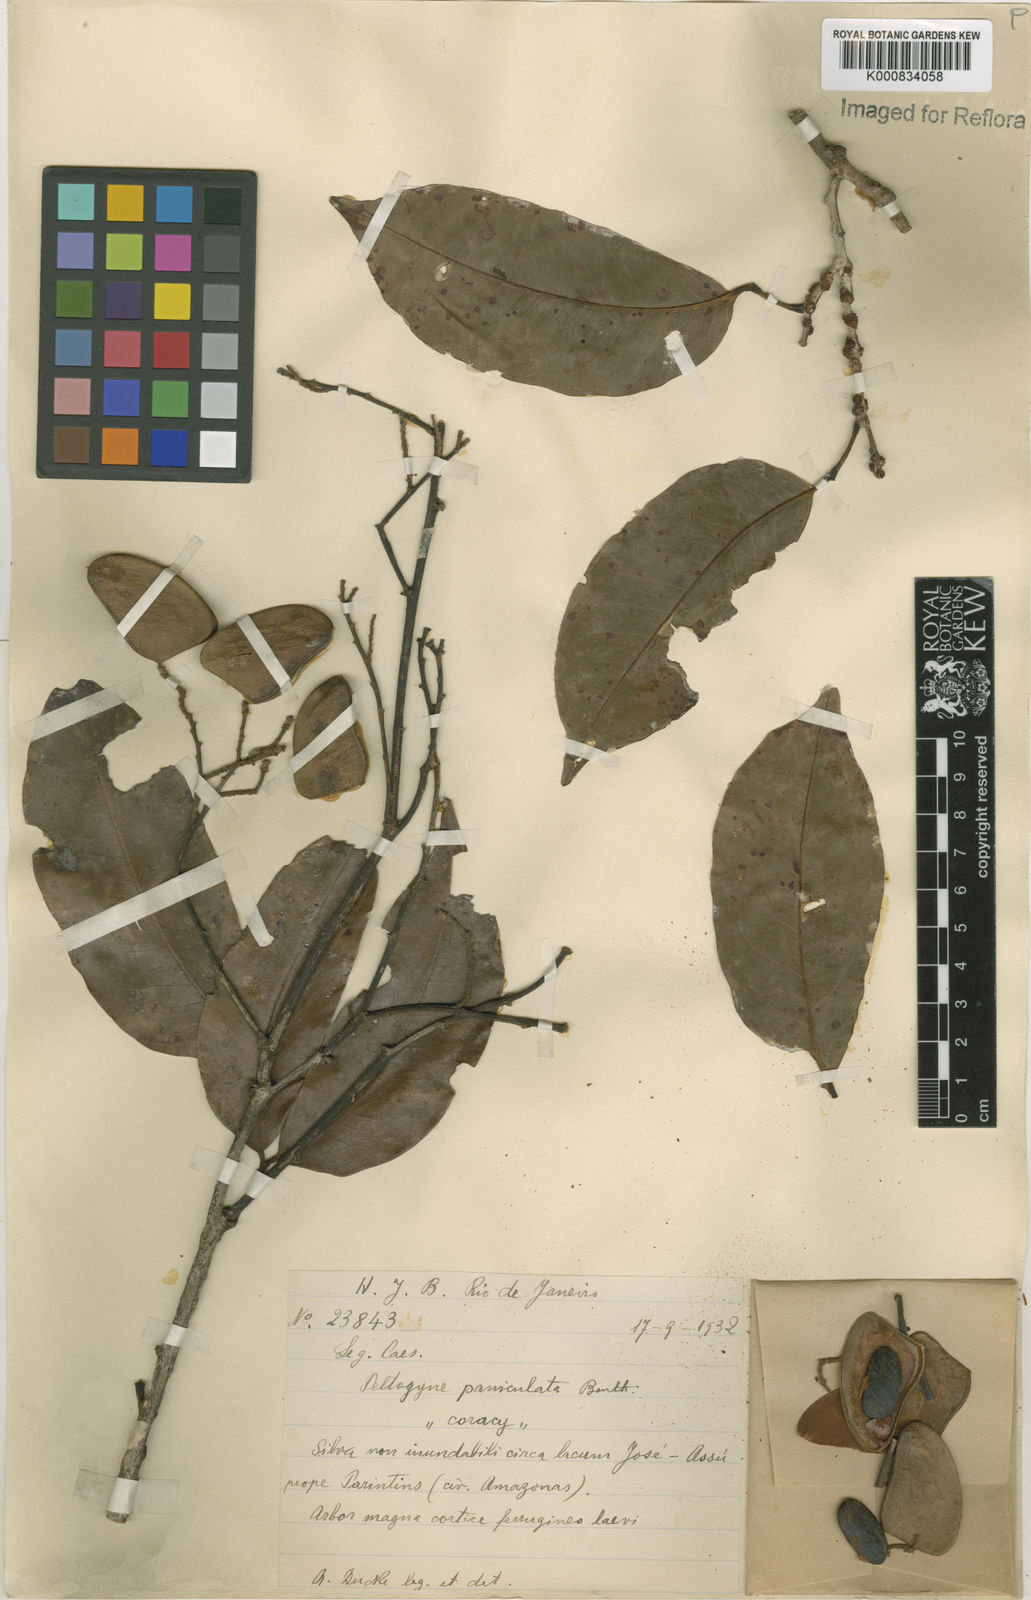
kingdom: Plantae
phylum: Tracheophyta
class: Magnoliopsida
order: Fabales
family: Fabaceae
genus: Peltogyne
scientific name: Peltogyne paniculata
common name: Purpleheart
